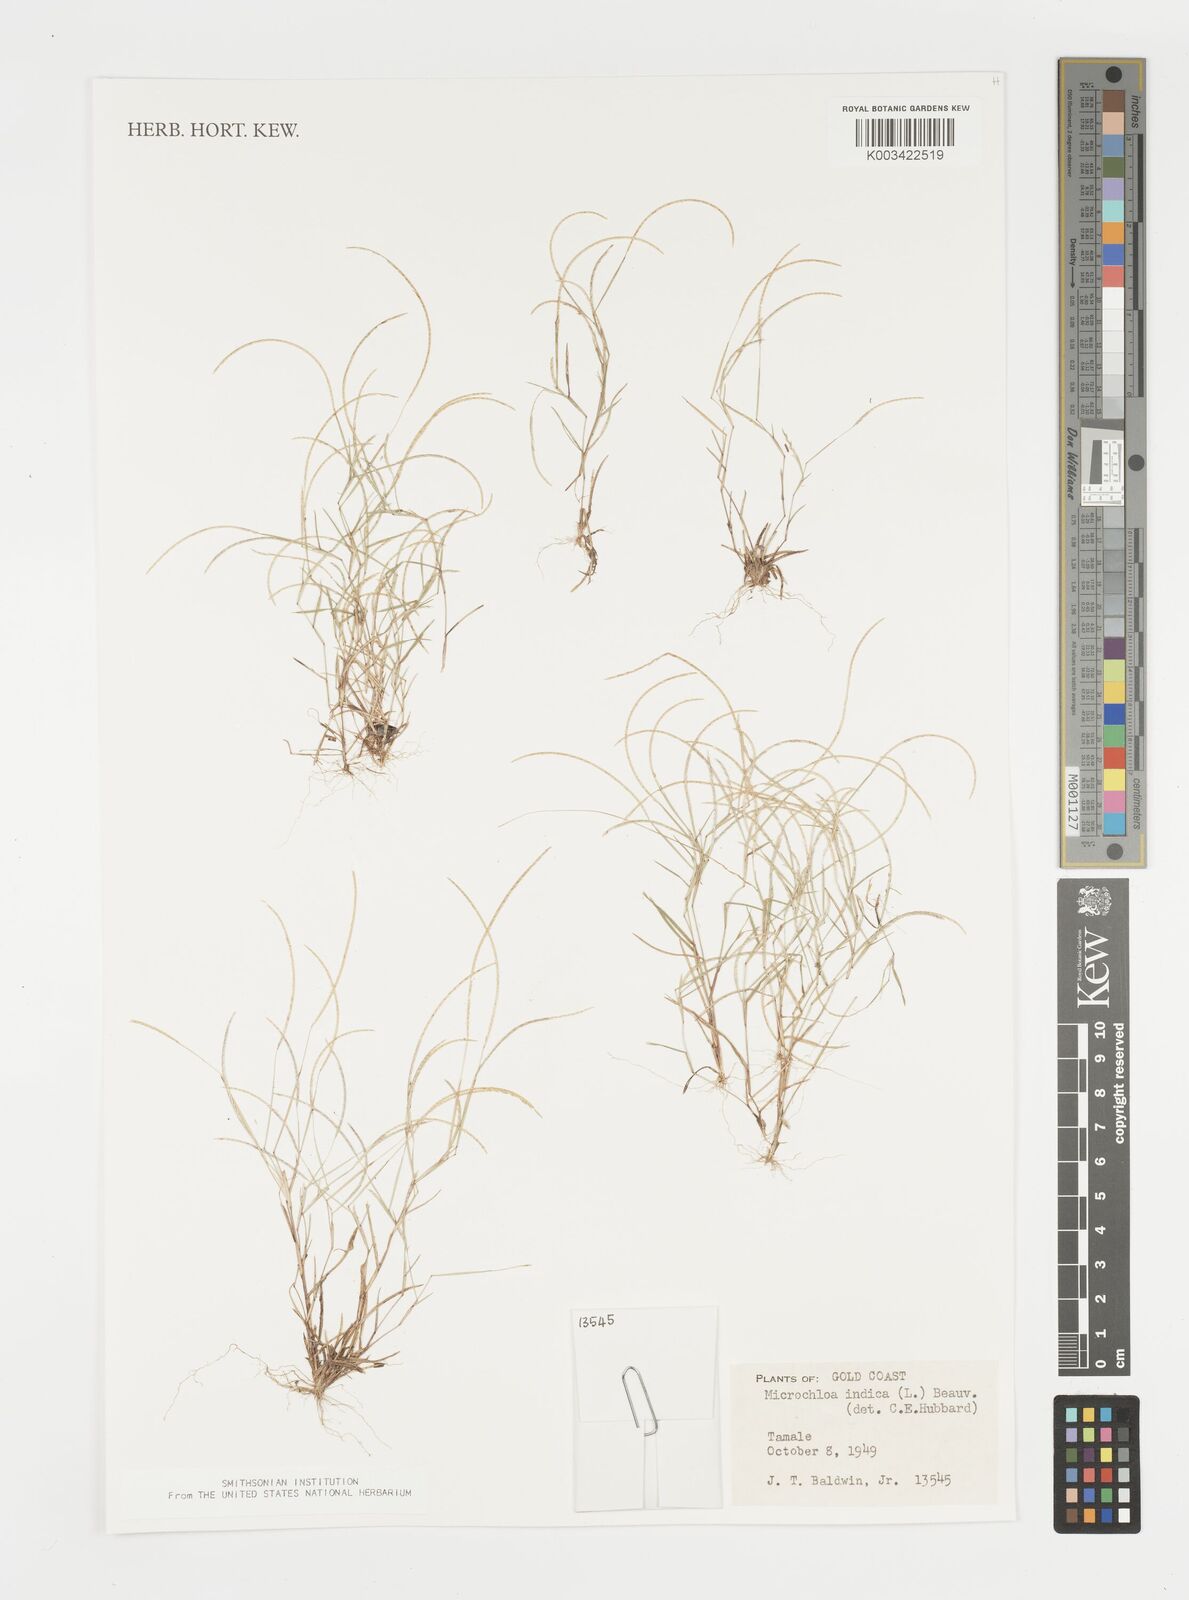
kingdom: Plantae
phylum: Tracheophyta
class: Liliopsida
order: Poales
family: Poaceae
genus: Microchloa
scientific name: Microchloa indica
